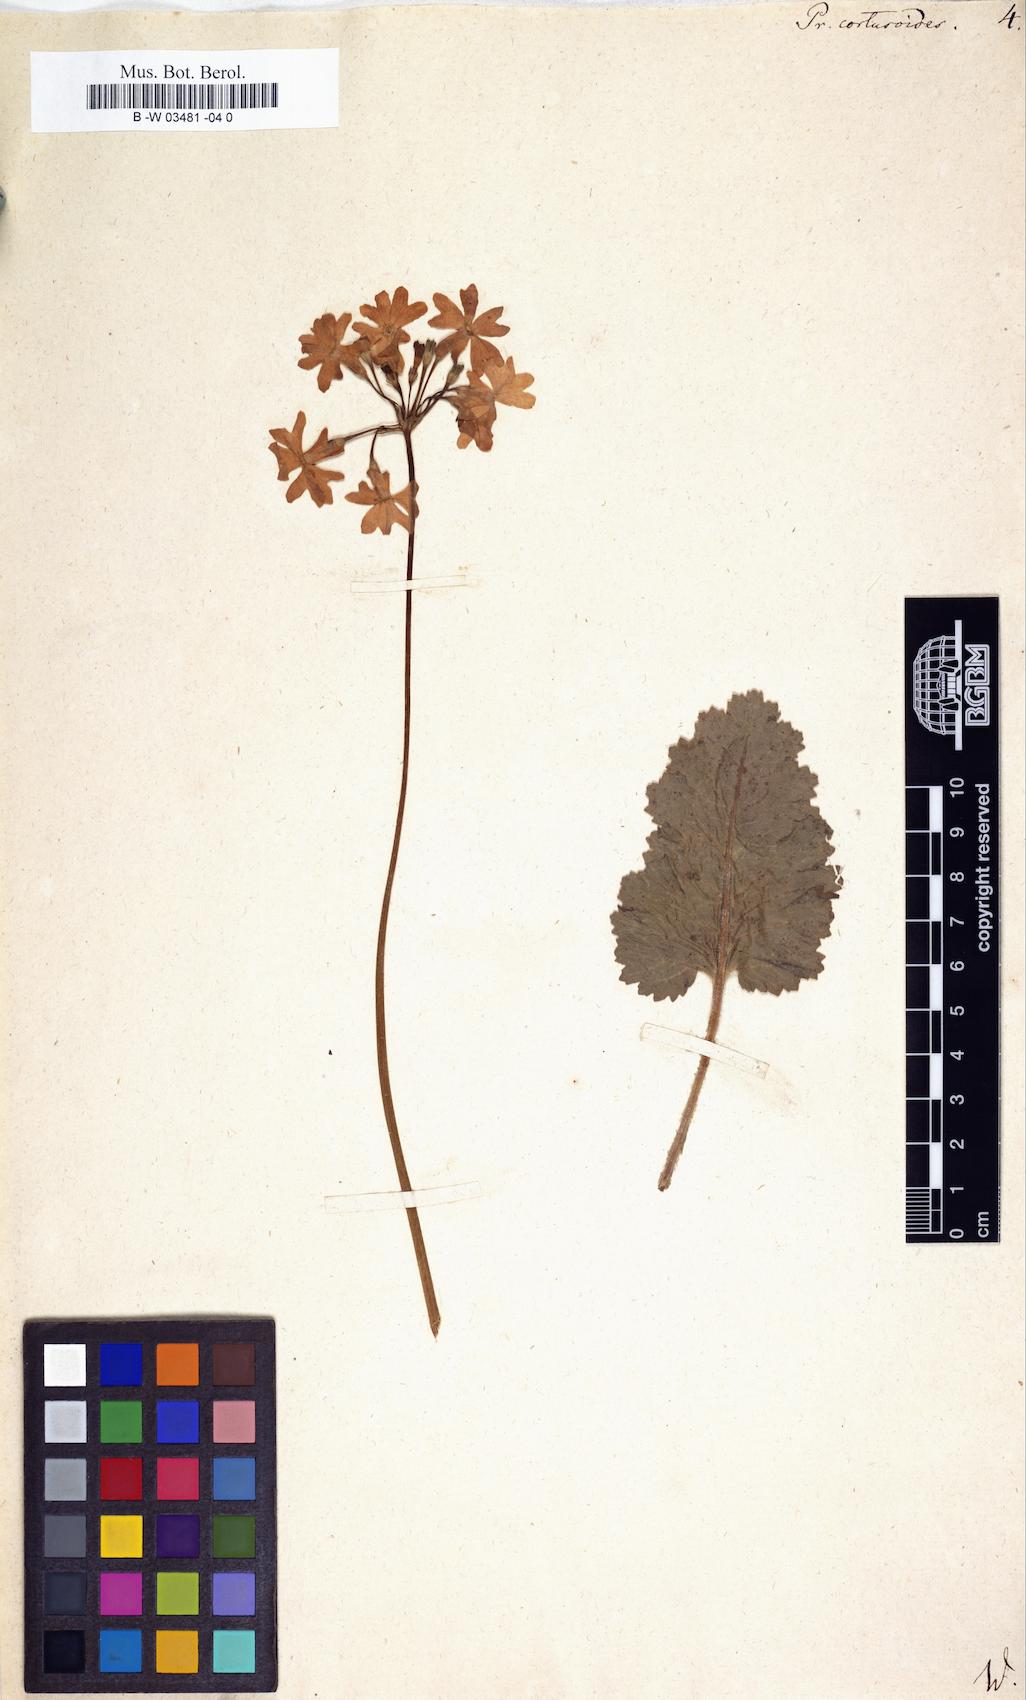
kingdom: Plantae
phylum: Tracheophyta
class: Magnoliopsida
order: Ericales
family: Primulaceae
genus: Primula
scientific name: Primula cortusoides
